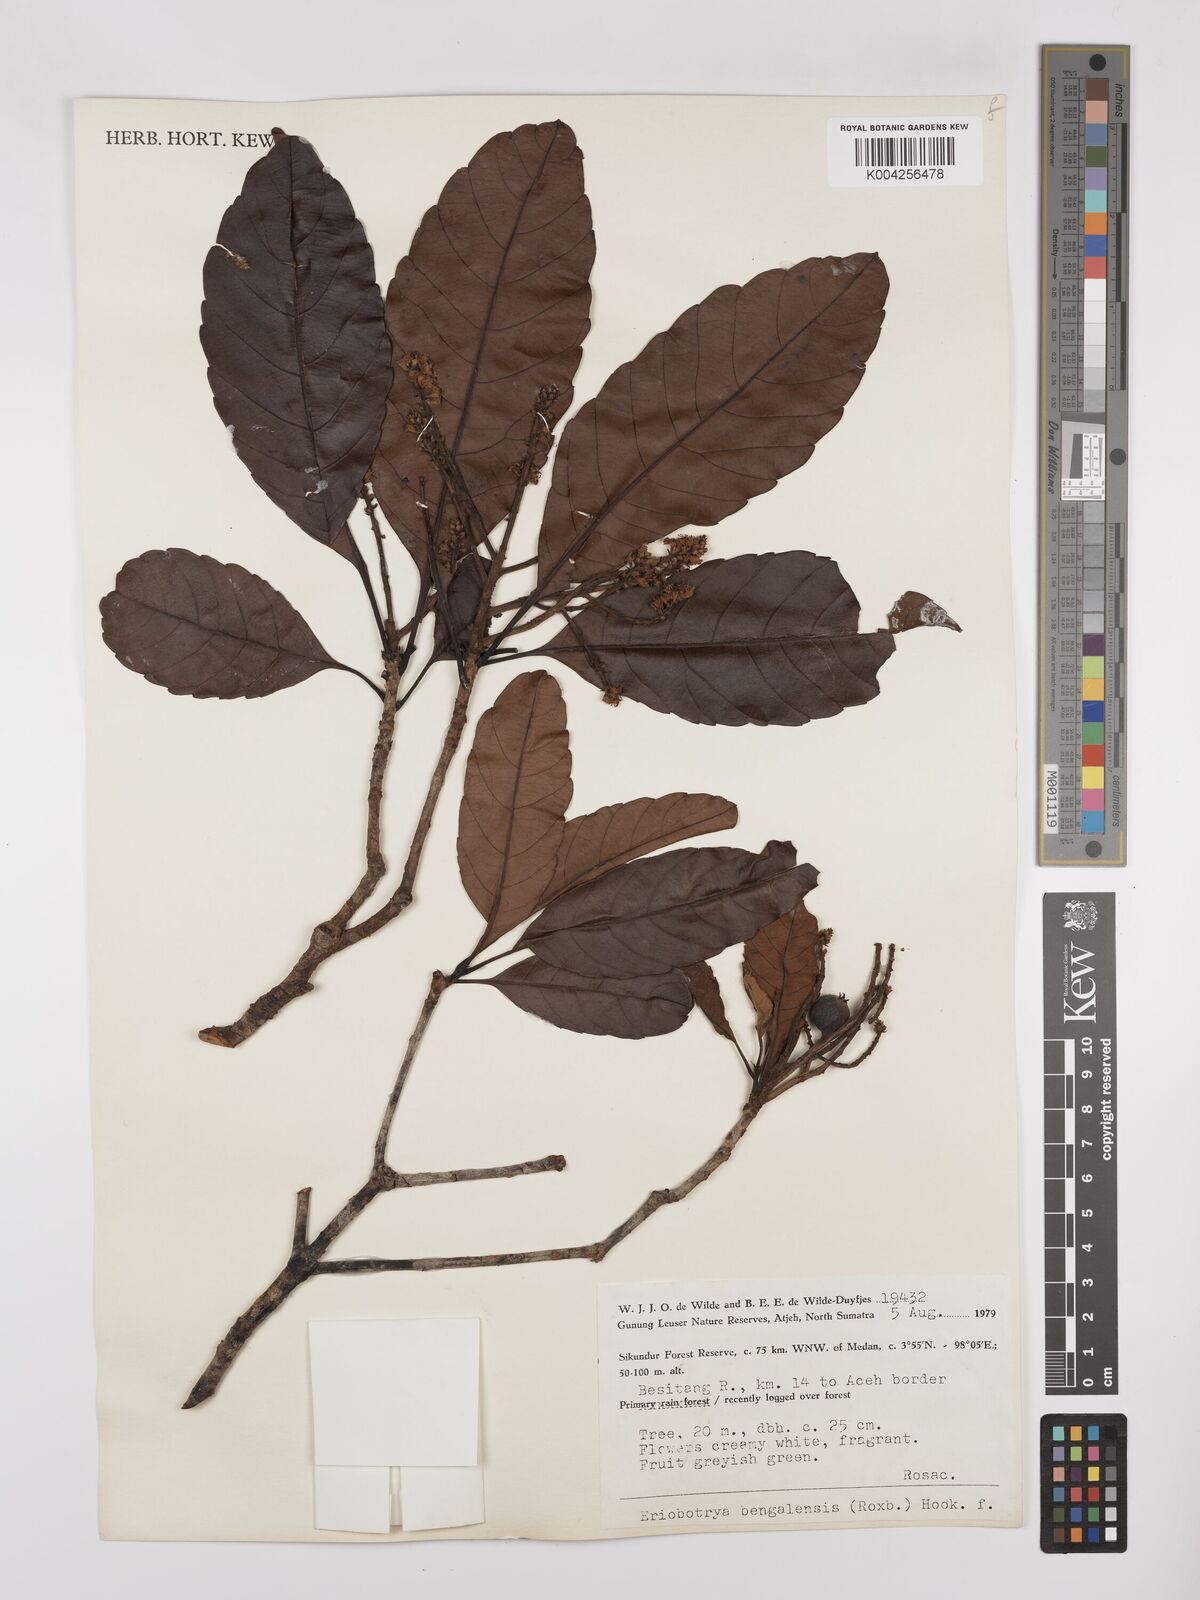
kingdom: Plantae
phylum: Tracheophyta
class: Magnoliopsida
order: Rosales
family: Rosaceae
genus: Rhaphiolepis
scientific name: Rhaphiolepis bengalensis
